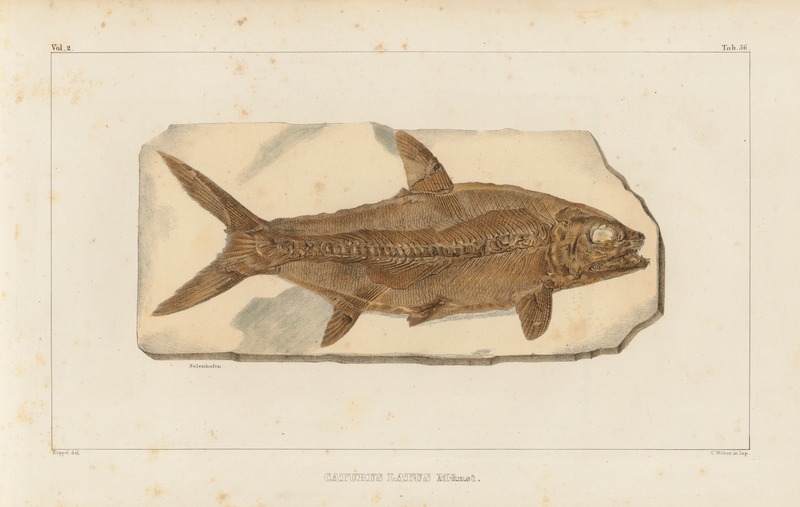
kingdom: Animalia
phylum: Chordata
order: Amiiformes
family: Caturidae
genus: Caturus
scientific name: Caturus furcatus
